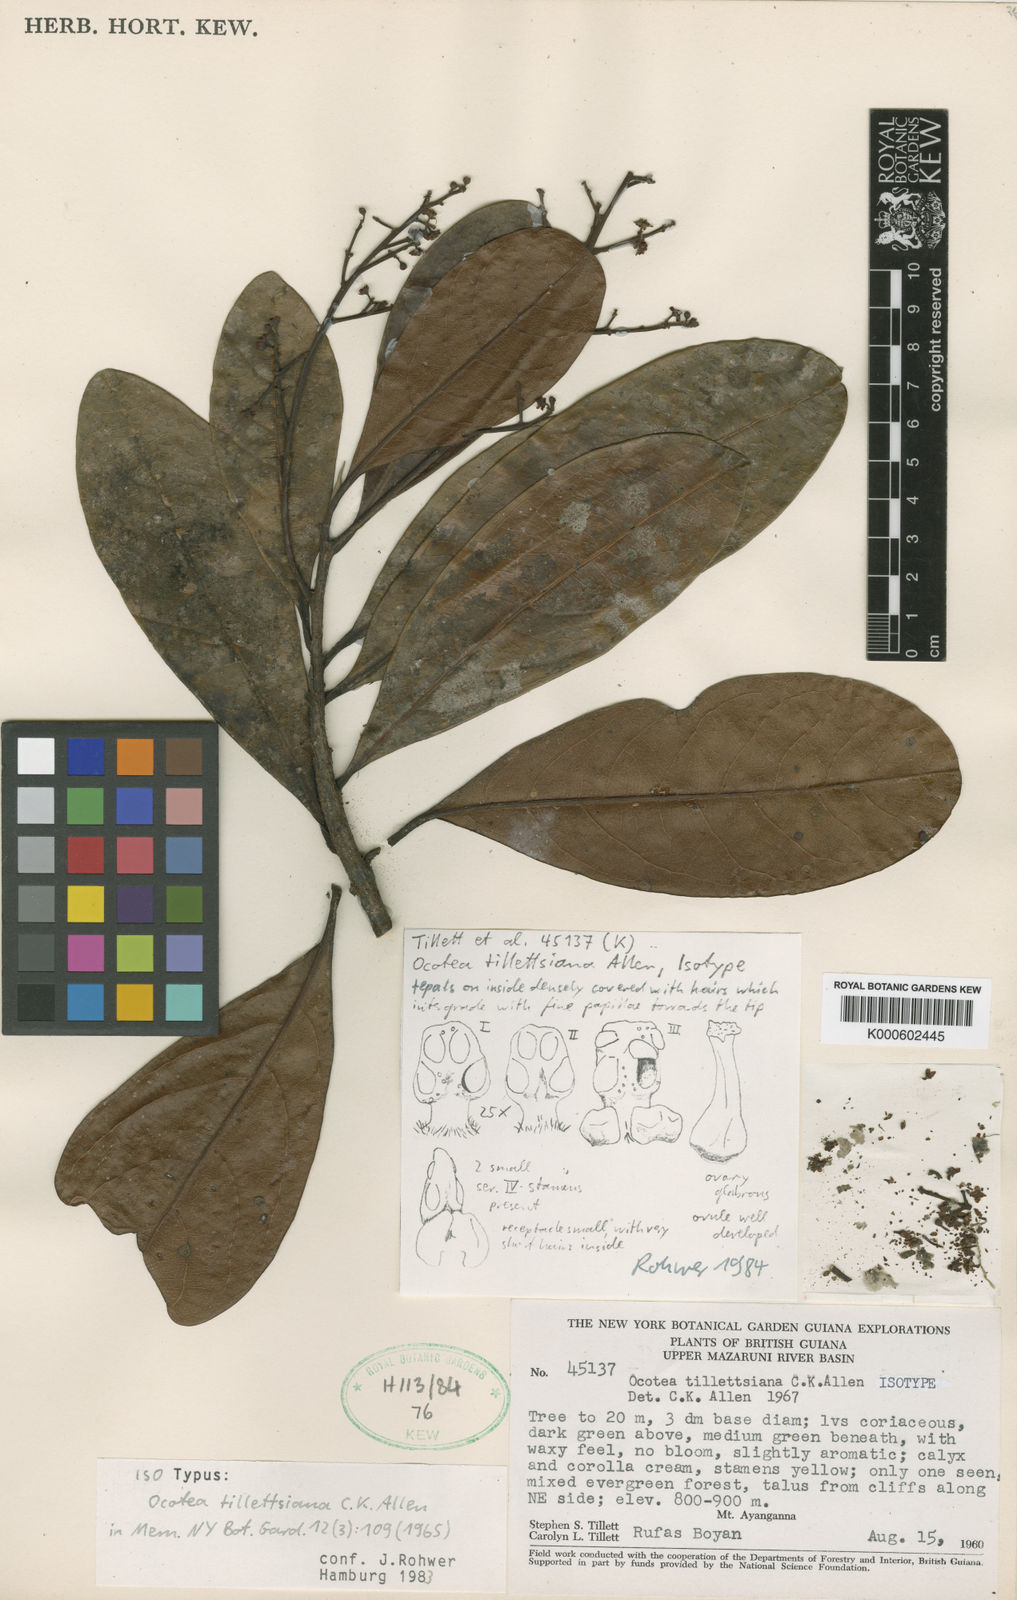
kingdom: Plantae
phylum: Tracheophyta
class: Magnoliopsida
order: Laurales
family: Lauraceae
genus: Ocotea
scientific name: Ocotea tillettsiana
